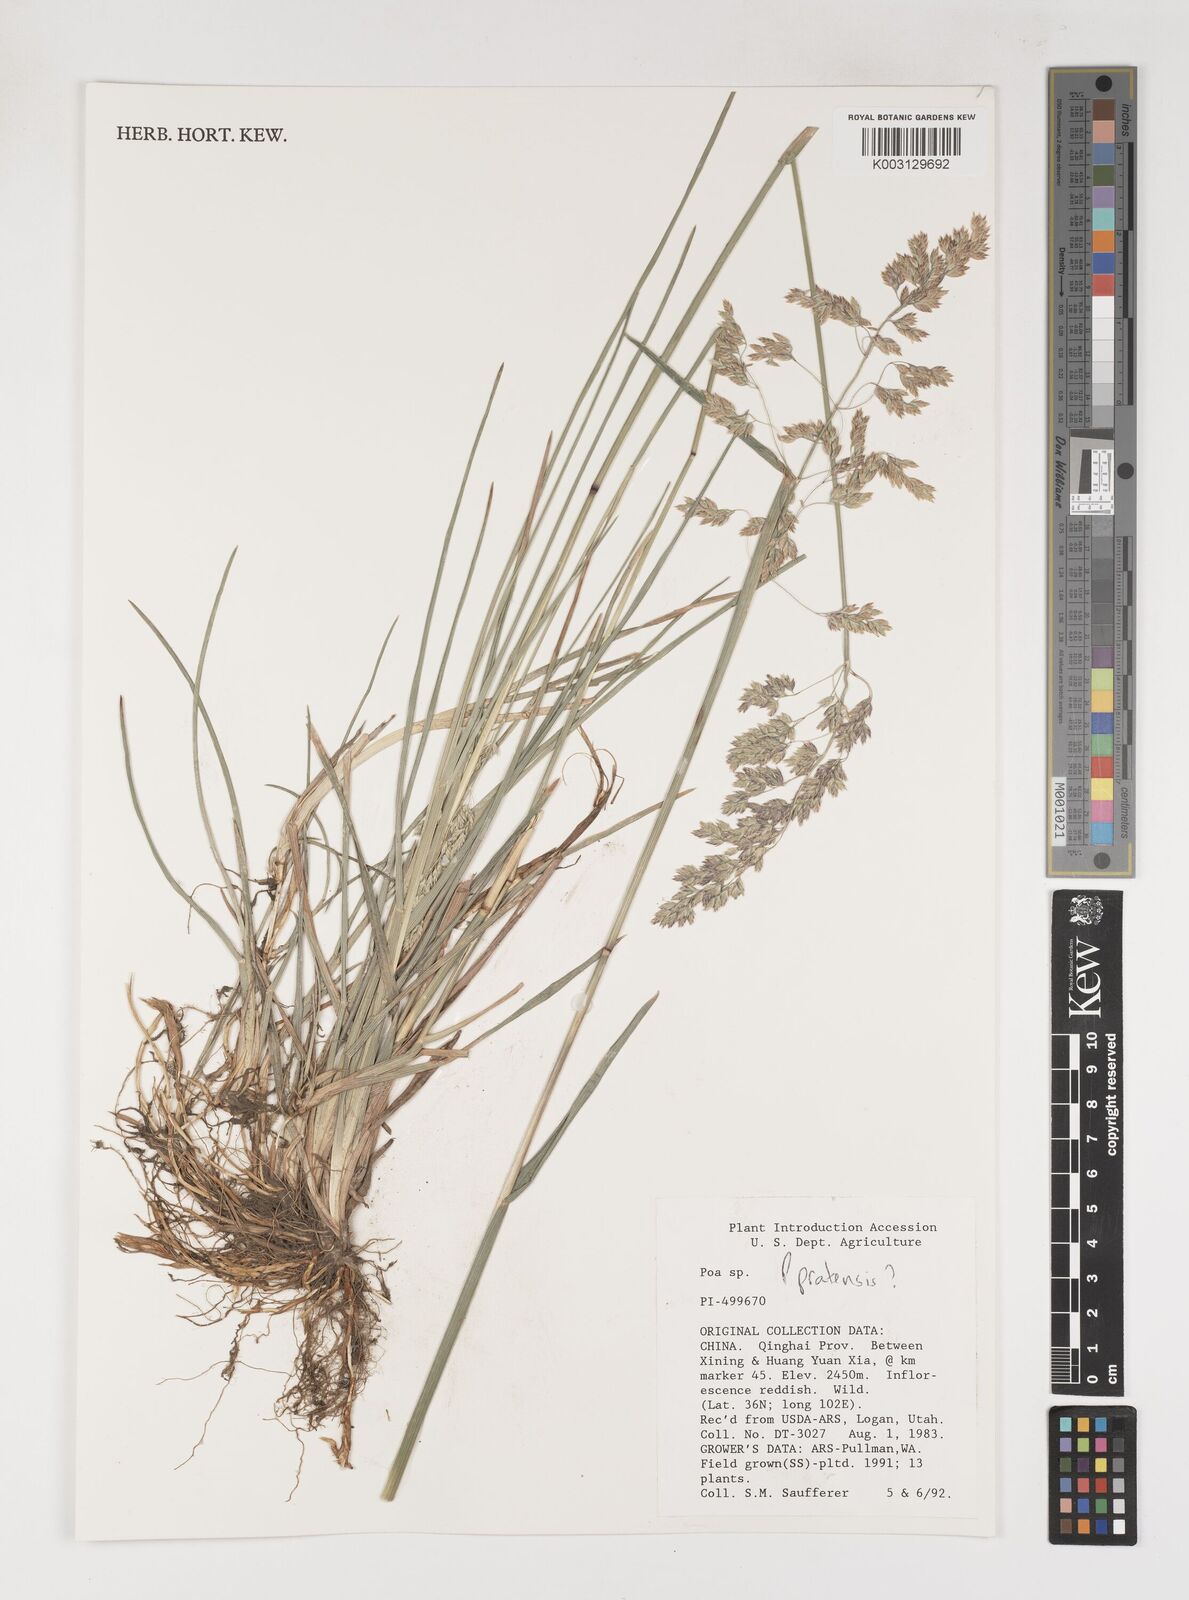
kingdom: Plantae
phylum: Tracheophyta
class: Liliopsida
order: Poales
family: Poaceae
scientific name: Poaceae
